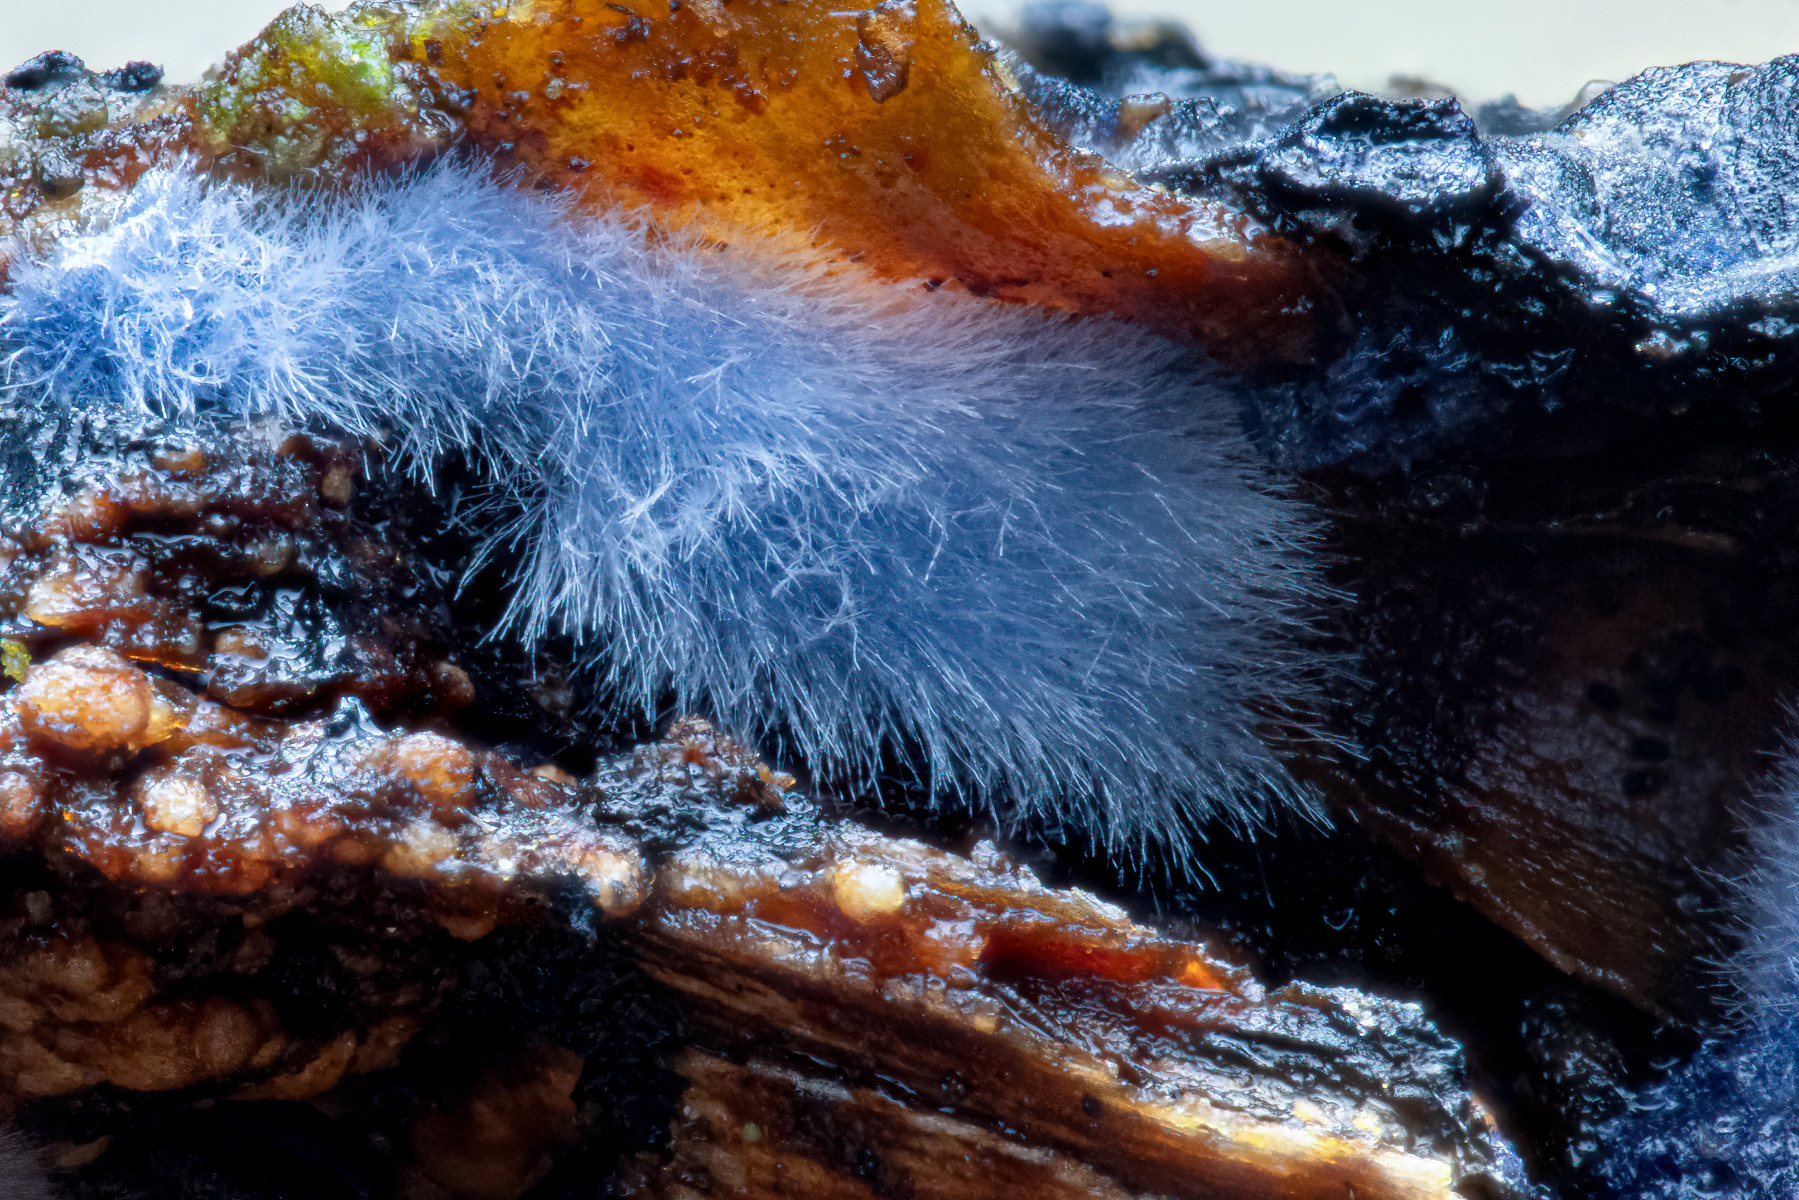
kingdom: Fungi
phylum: Basidiomycota
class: Agaricomycetes
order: Polyporales
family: Phanerochaetaceae
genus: Terana
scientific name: Terana caerulea
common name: indigoskorpe
